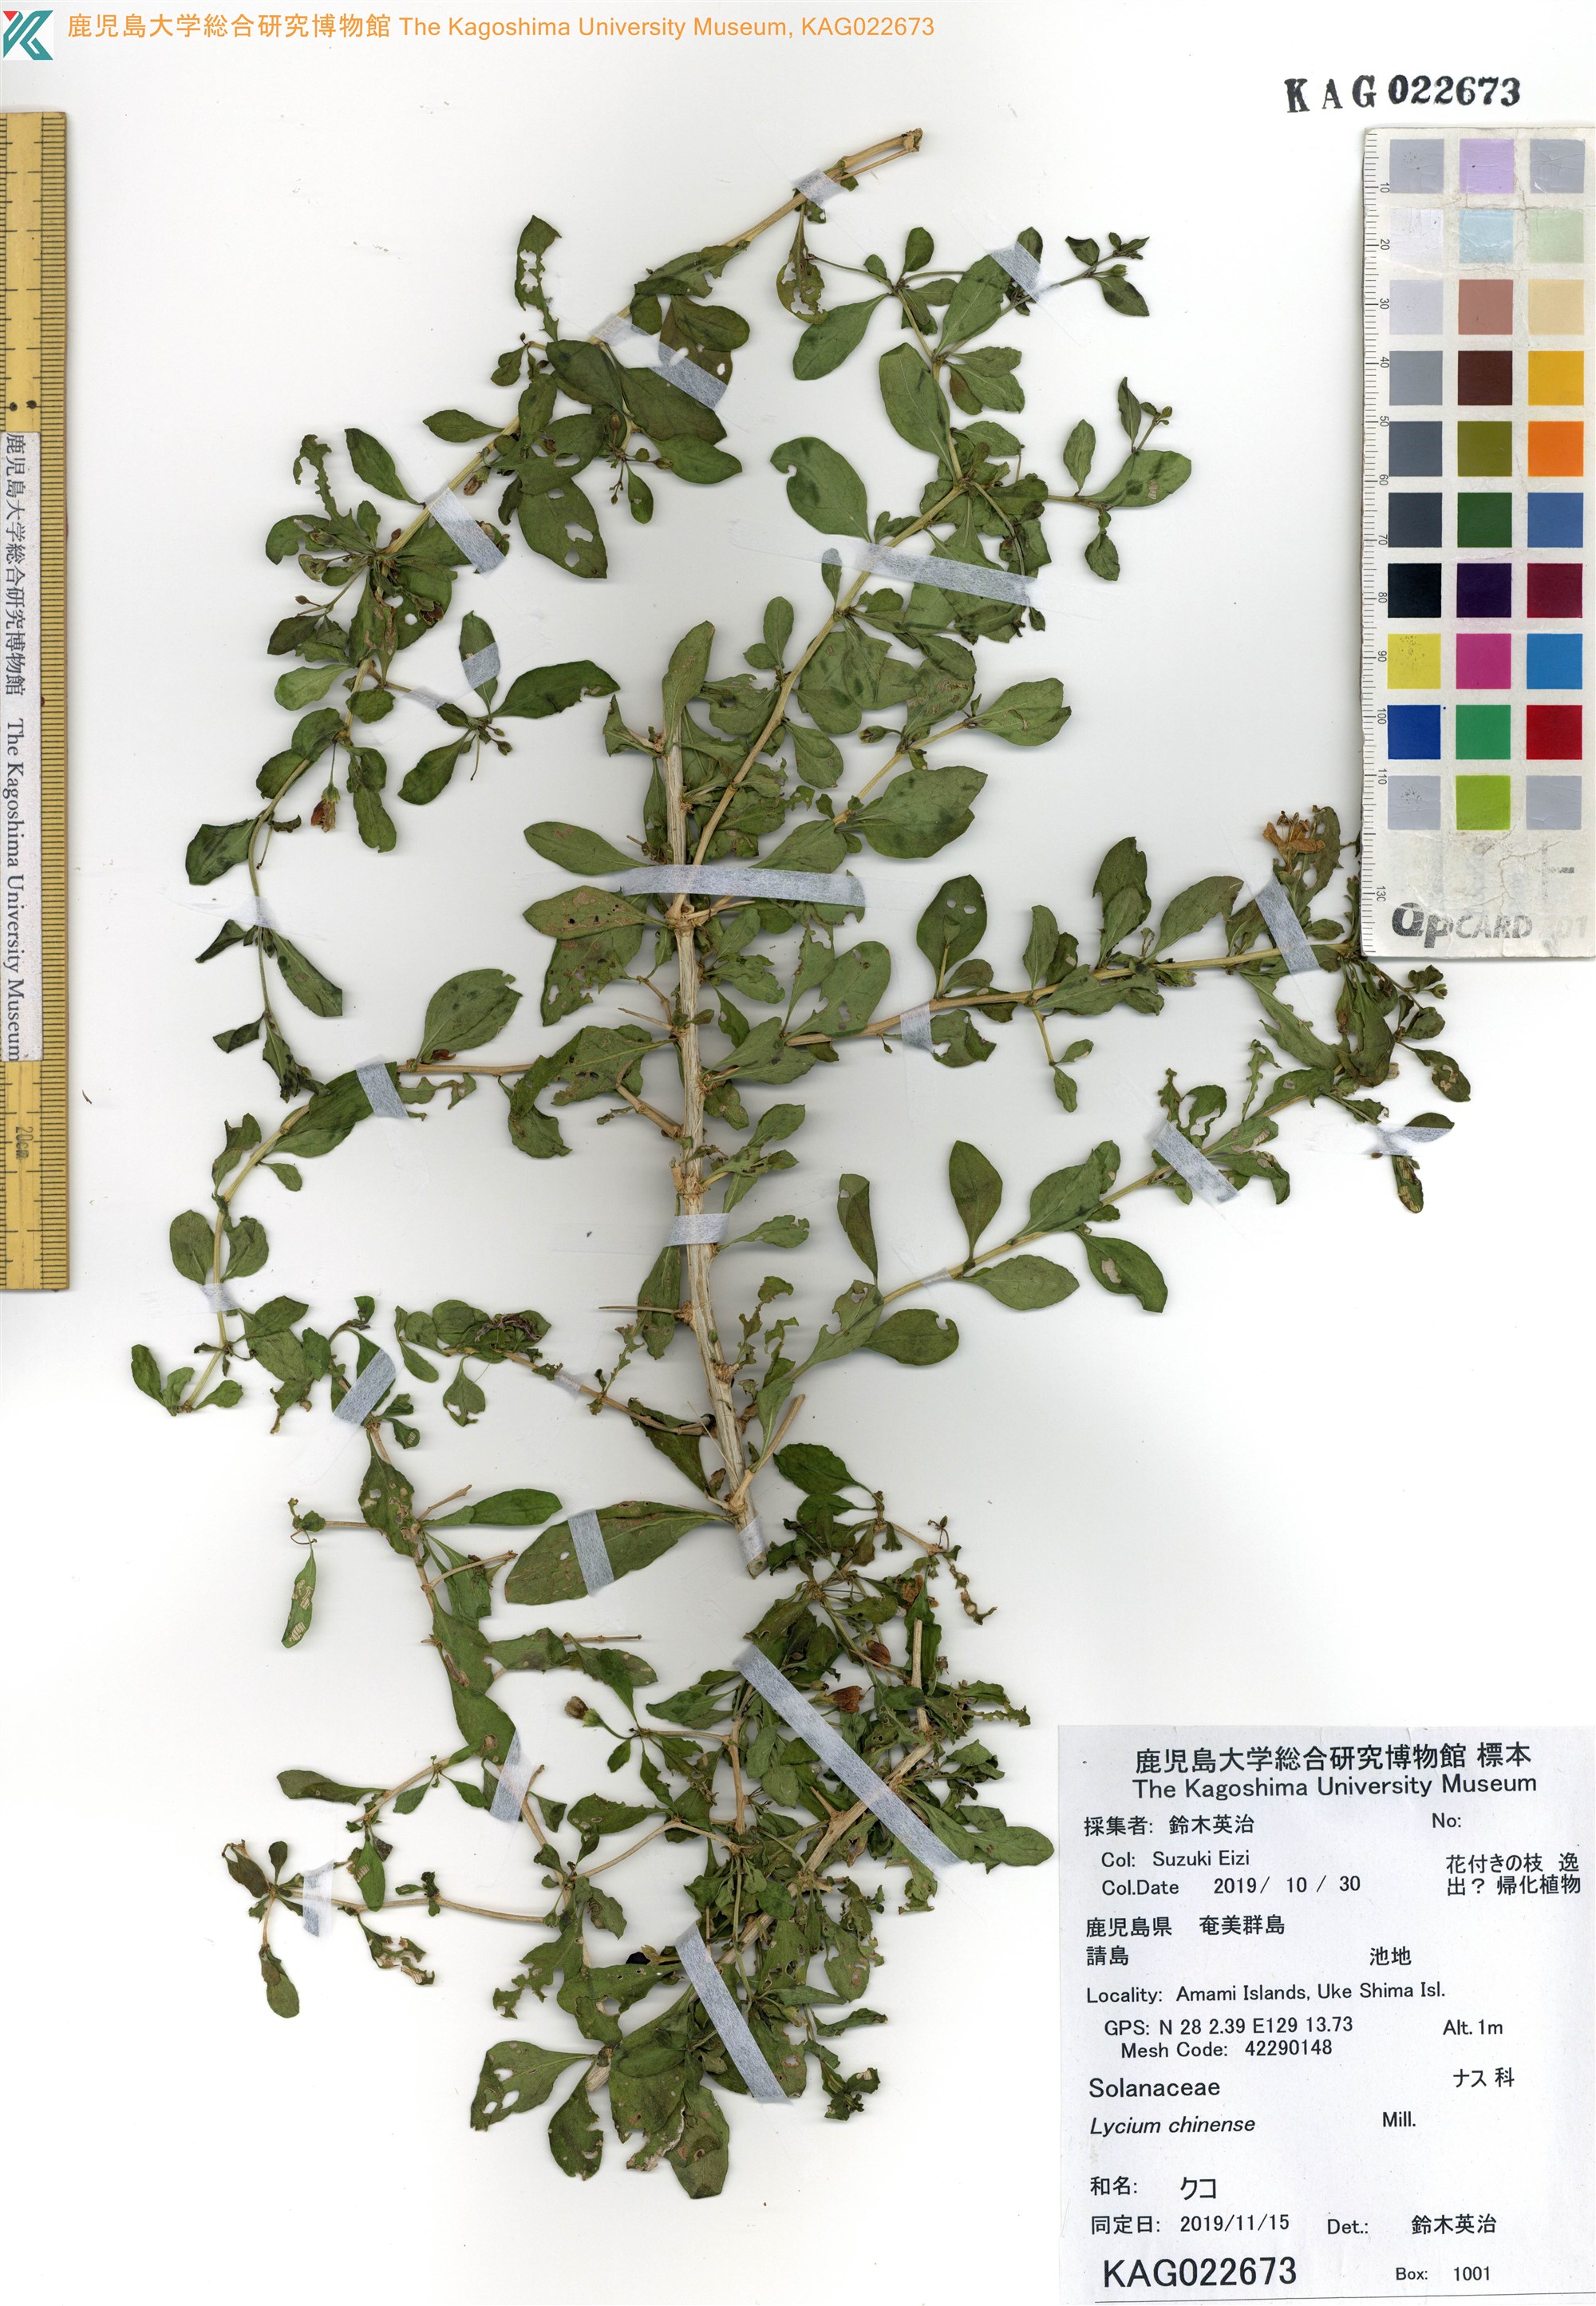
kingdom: Plantae
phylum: Tracheophyta
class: Magnoliopsida
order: Solanales
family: Solanaceae
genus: Lycium
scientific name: Lycium chinense
